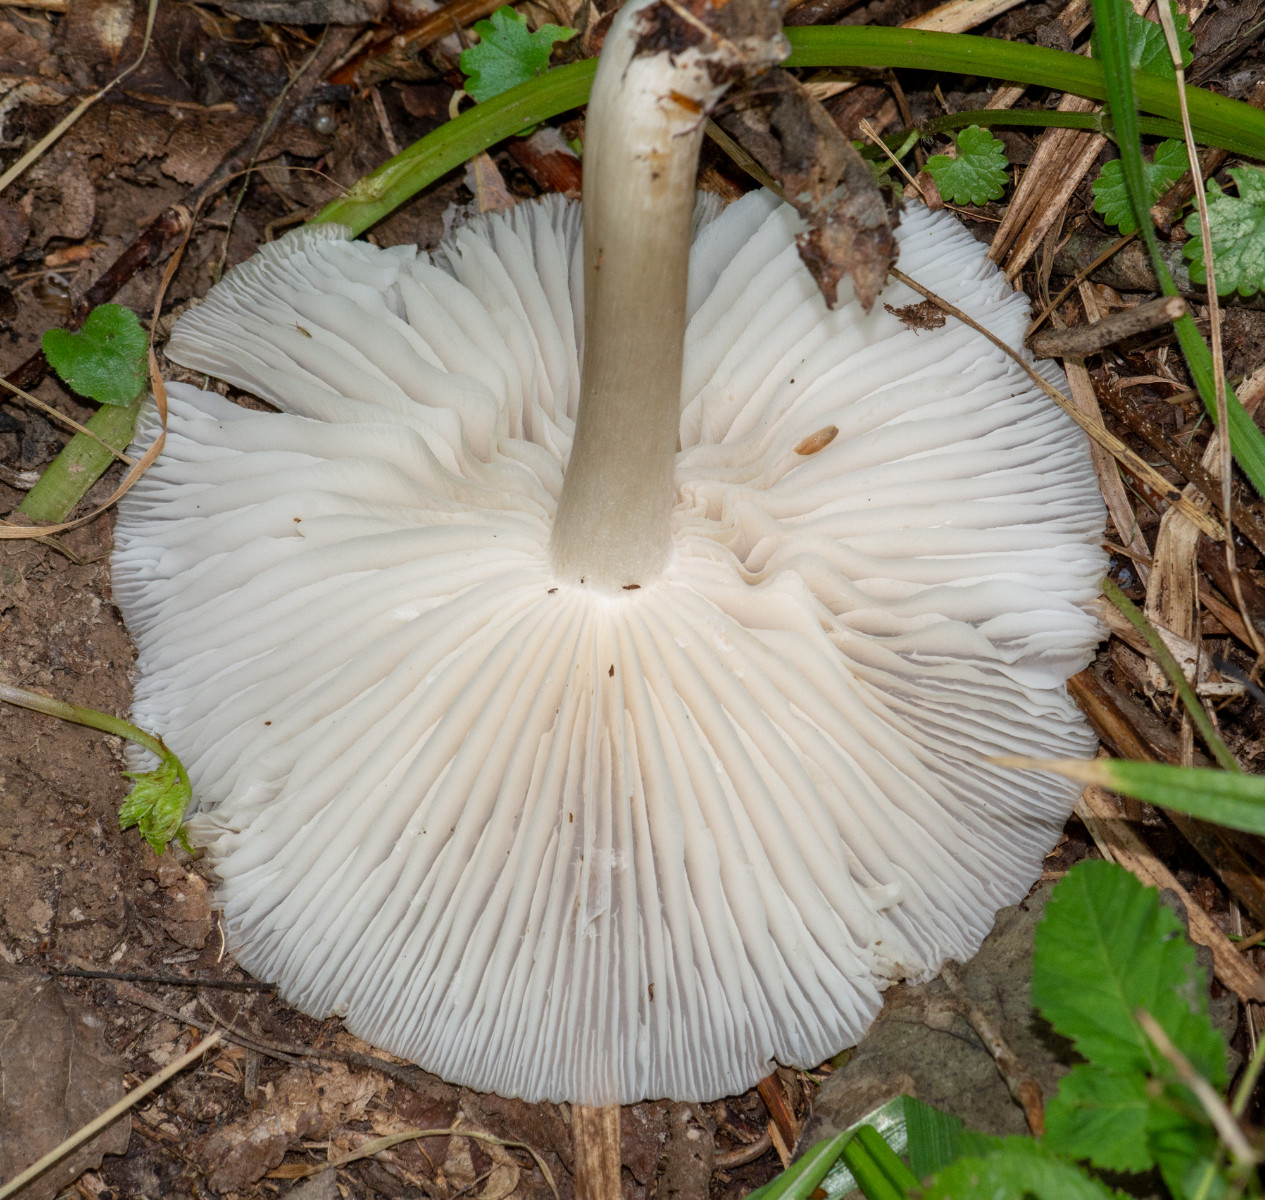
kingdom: Fungi
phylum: Basidiomycota
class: Agaricomycetes
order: Agaricales
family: Tricholomataceae
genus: Megacollybia
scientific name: Megacollybia platyphylla
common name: bredbladet væbnerhat
